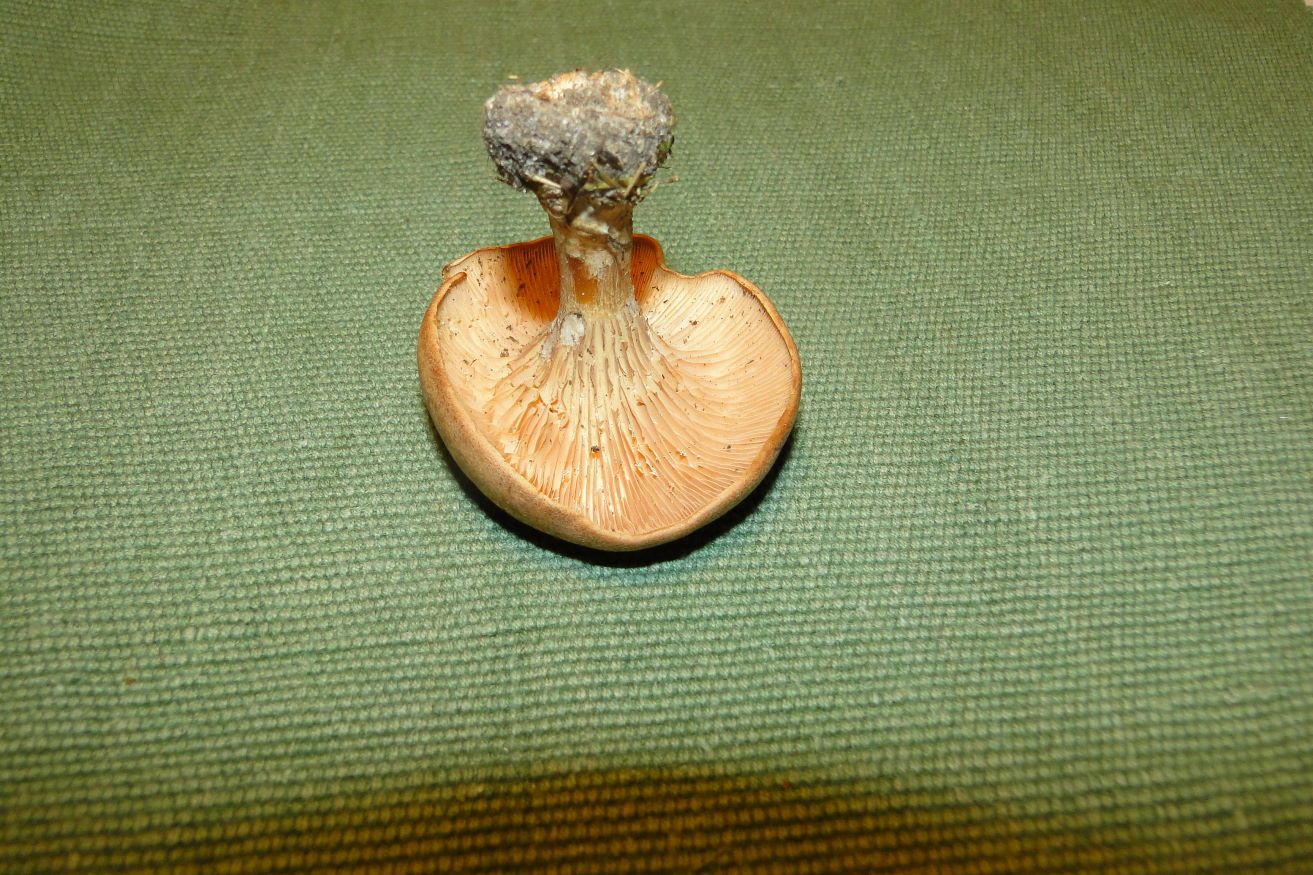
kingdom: Fungi
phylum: Basidiomycota
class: Agaricomycetes
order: Agaricales
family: Tricholomataceae
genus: Paralepista
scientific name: Paralepista gilva
